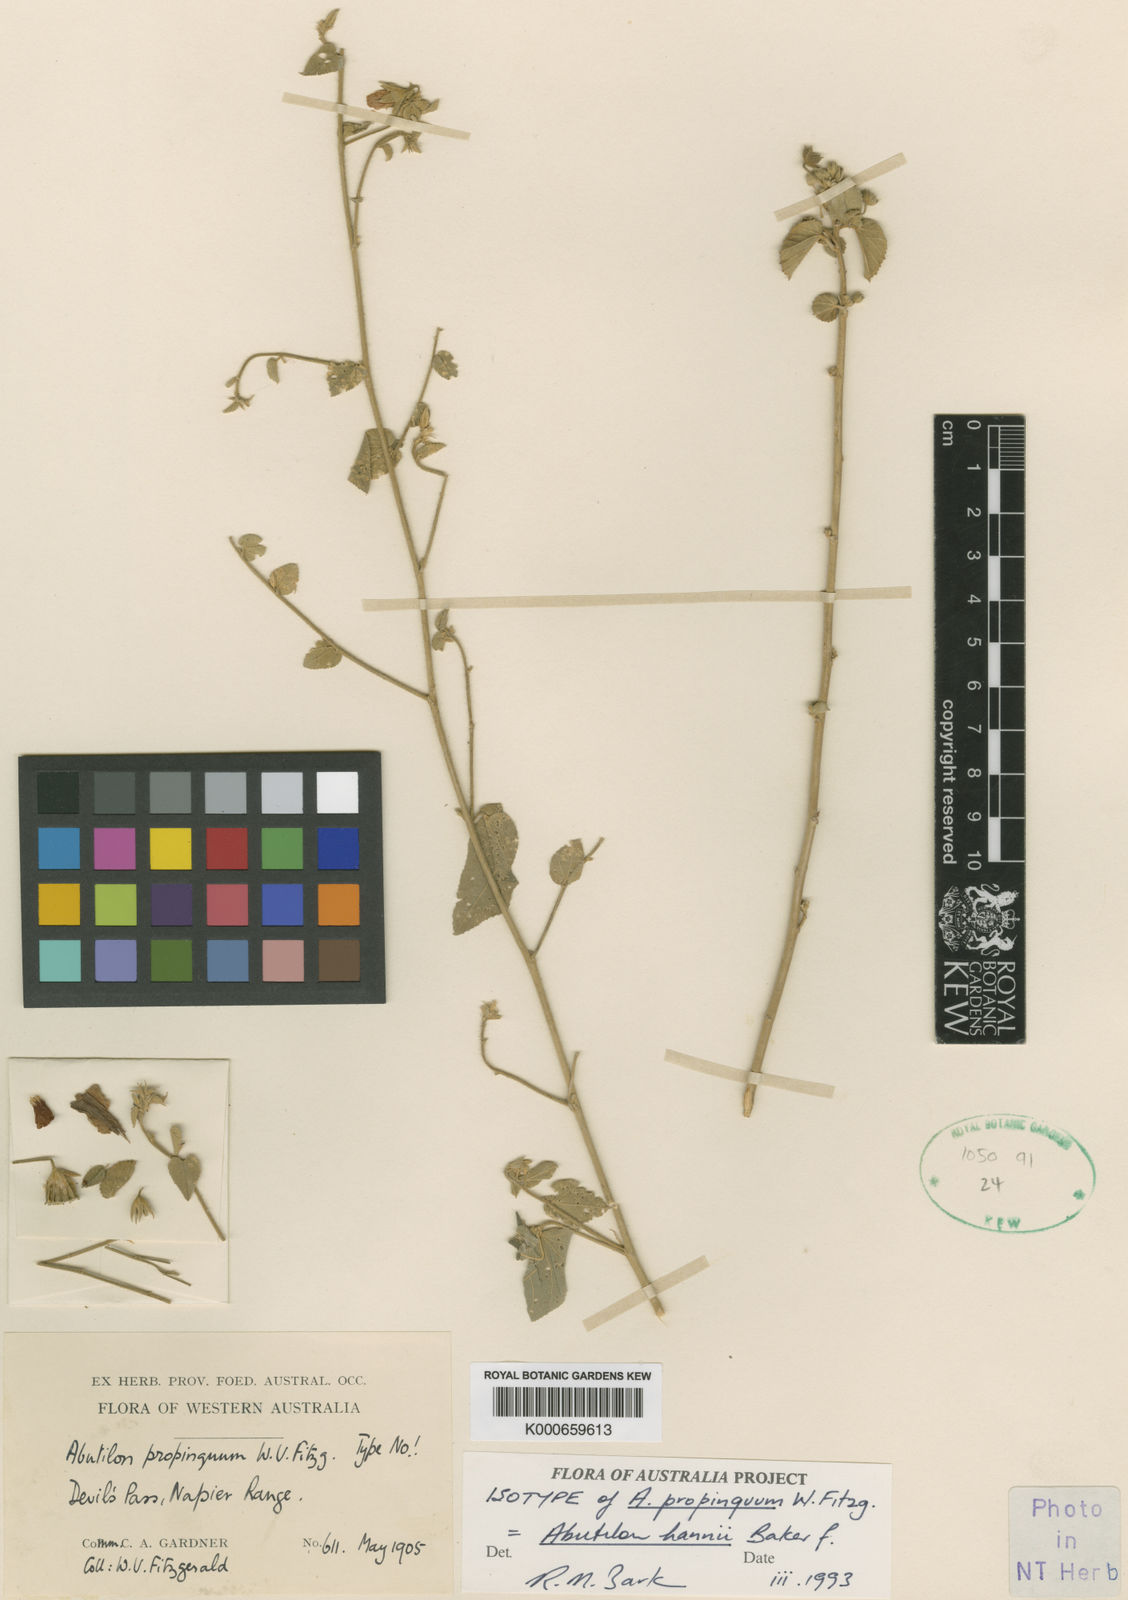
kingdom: Plantae
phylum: Tracheophyta
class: Magnoliopsida
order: Malvales
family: Malvaceae
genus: Abutilon
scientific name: Abutilon hannii
